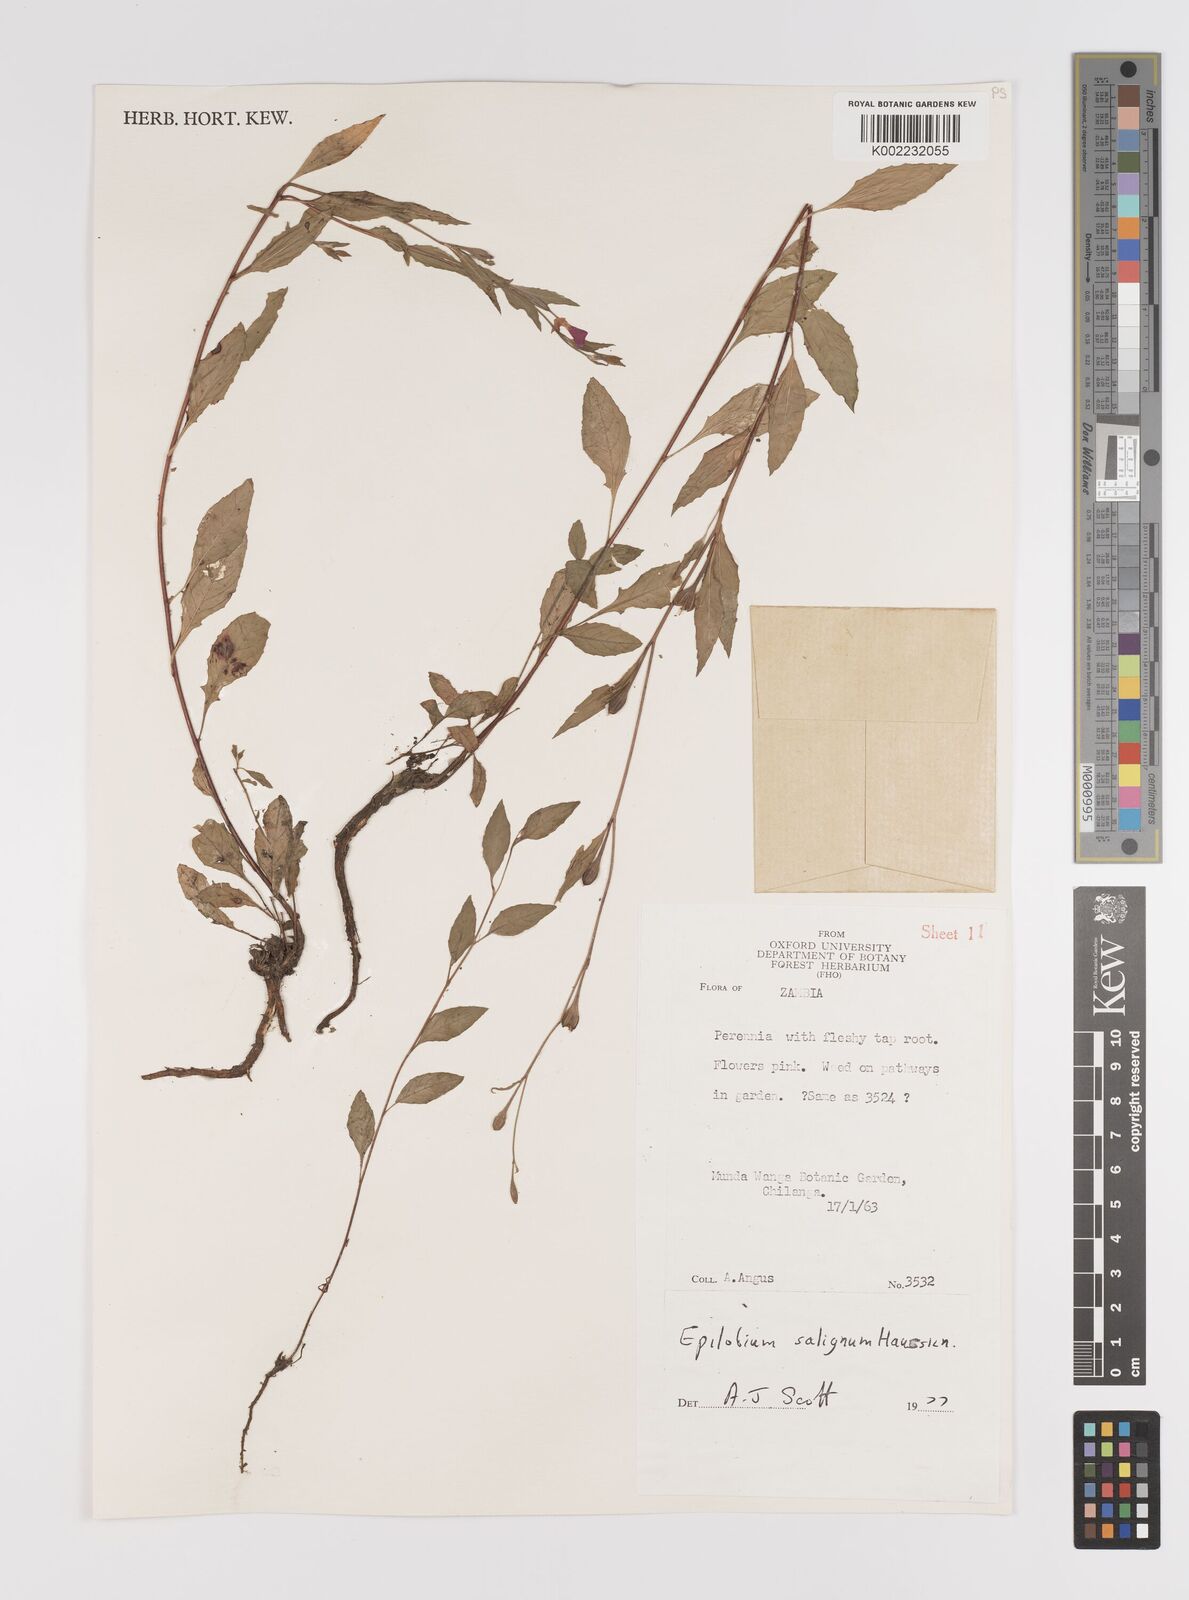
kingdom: Plantae
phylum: Tracheophyta
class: Magnoliopsida
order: Myrtales
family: Onagraceae
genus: Epilobium
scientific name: Epilobium salignum
